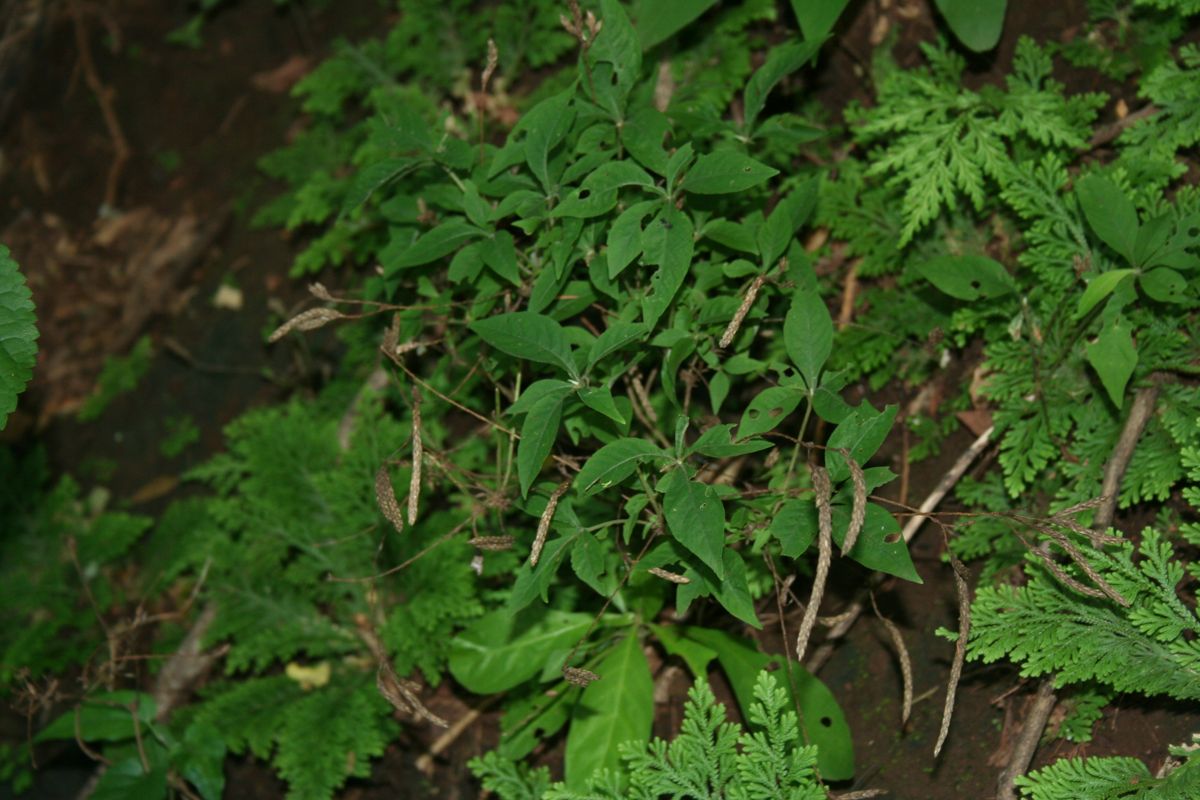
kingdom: Plantae
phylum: Tracheophyta
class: Magnoliopsida
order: Lamiales
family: Acanthaceae
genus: Elytraria
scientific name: Elytraria imbricata
